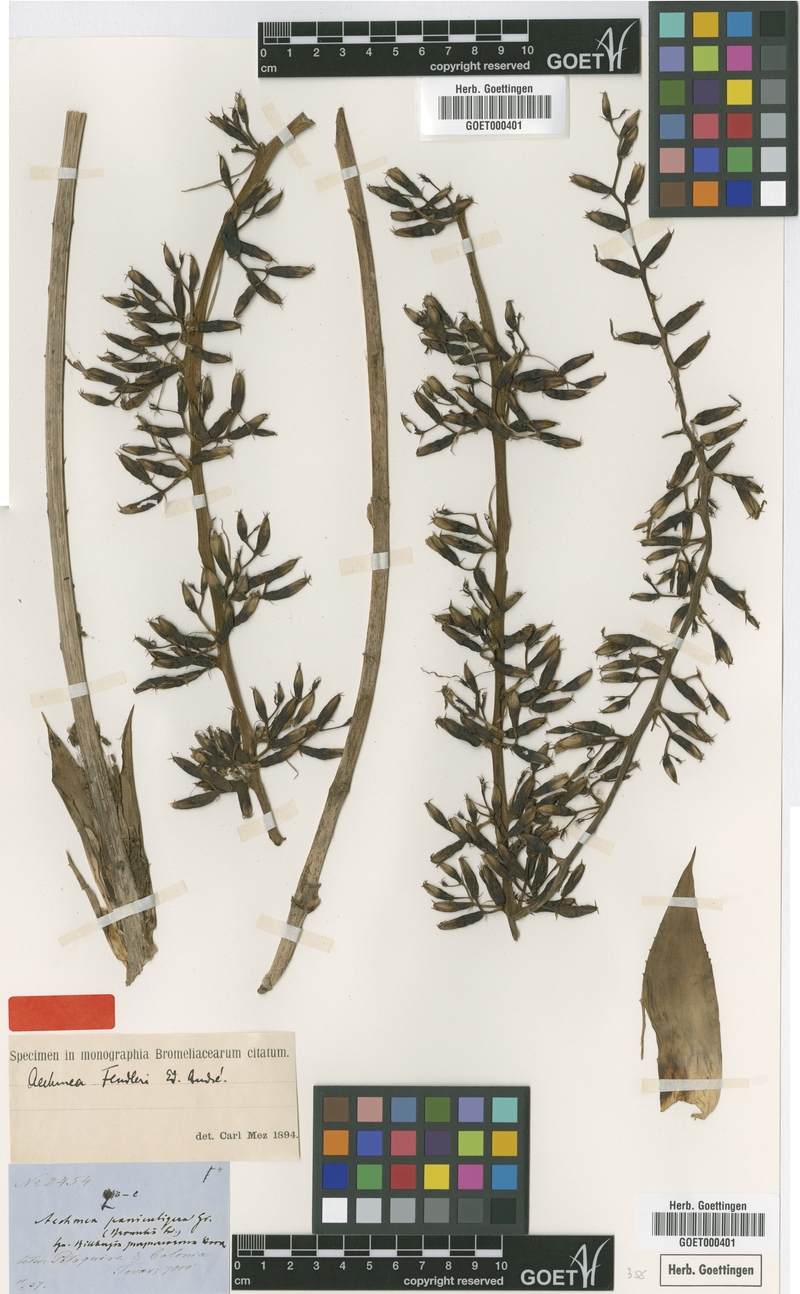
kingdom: Plantae
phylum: Tracheophyta
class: Liliopsida
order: Poales
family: Bromeliaceae
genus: Aechmea
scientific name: Aechmea fendleri
